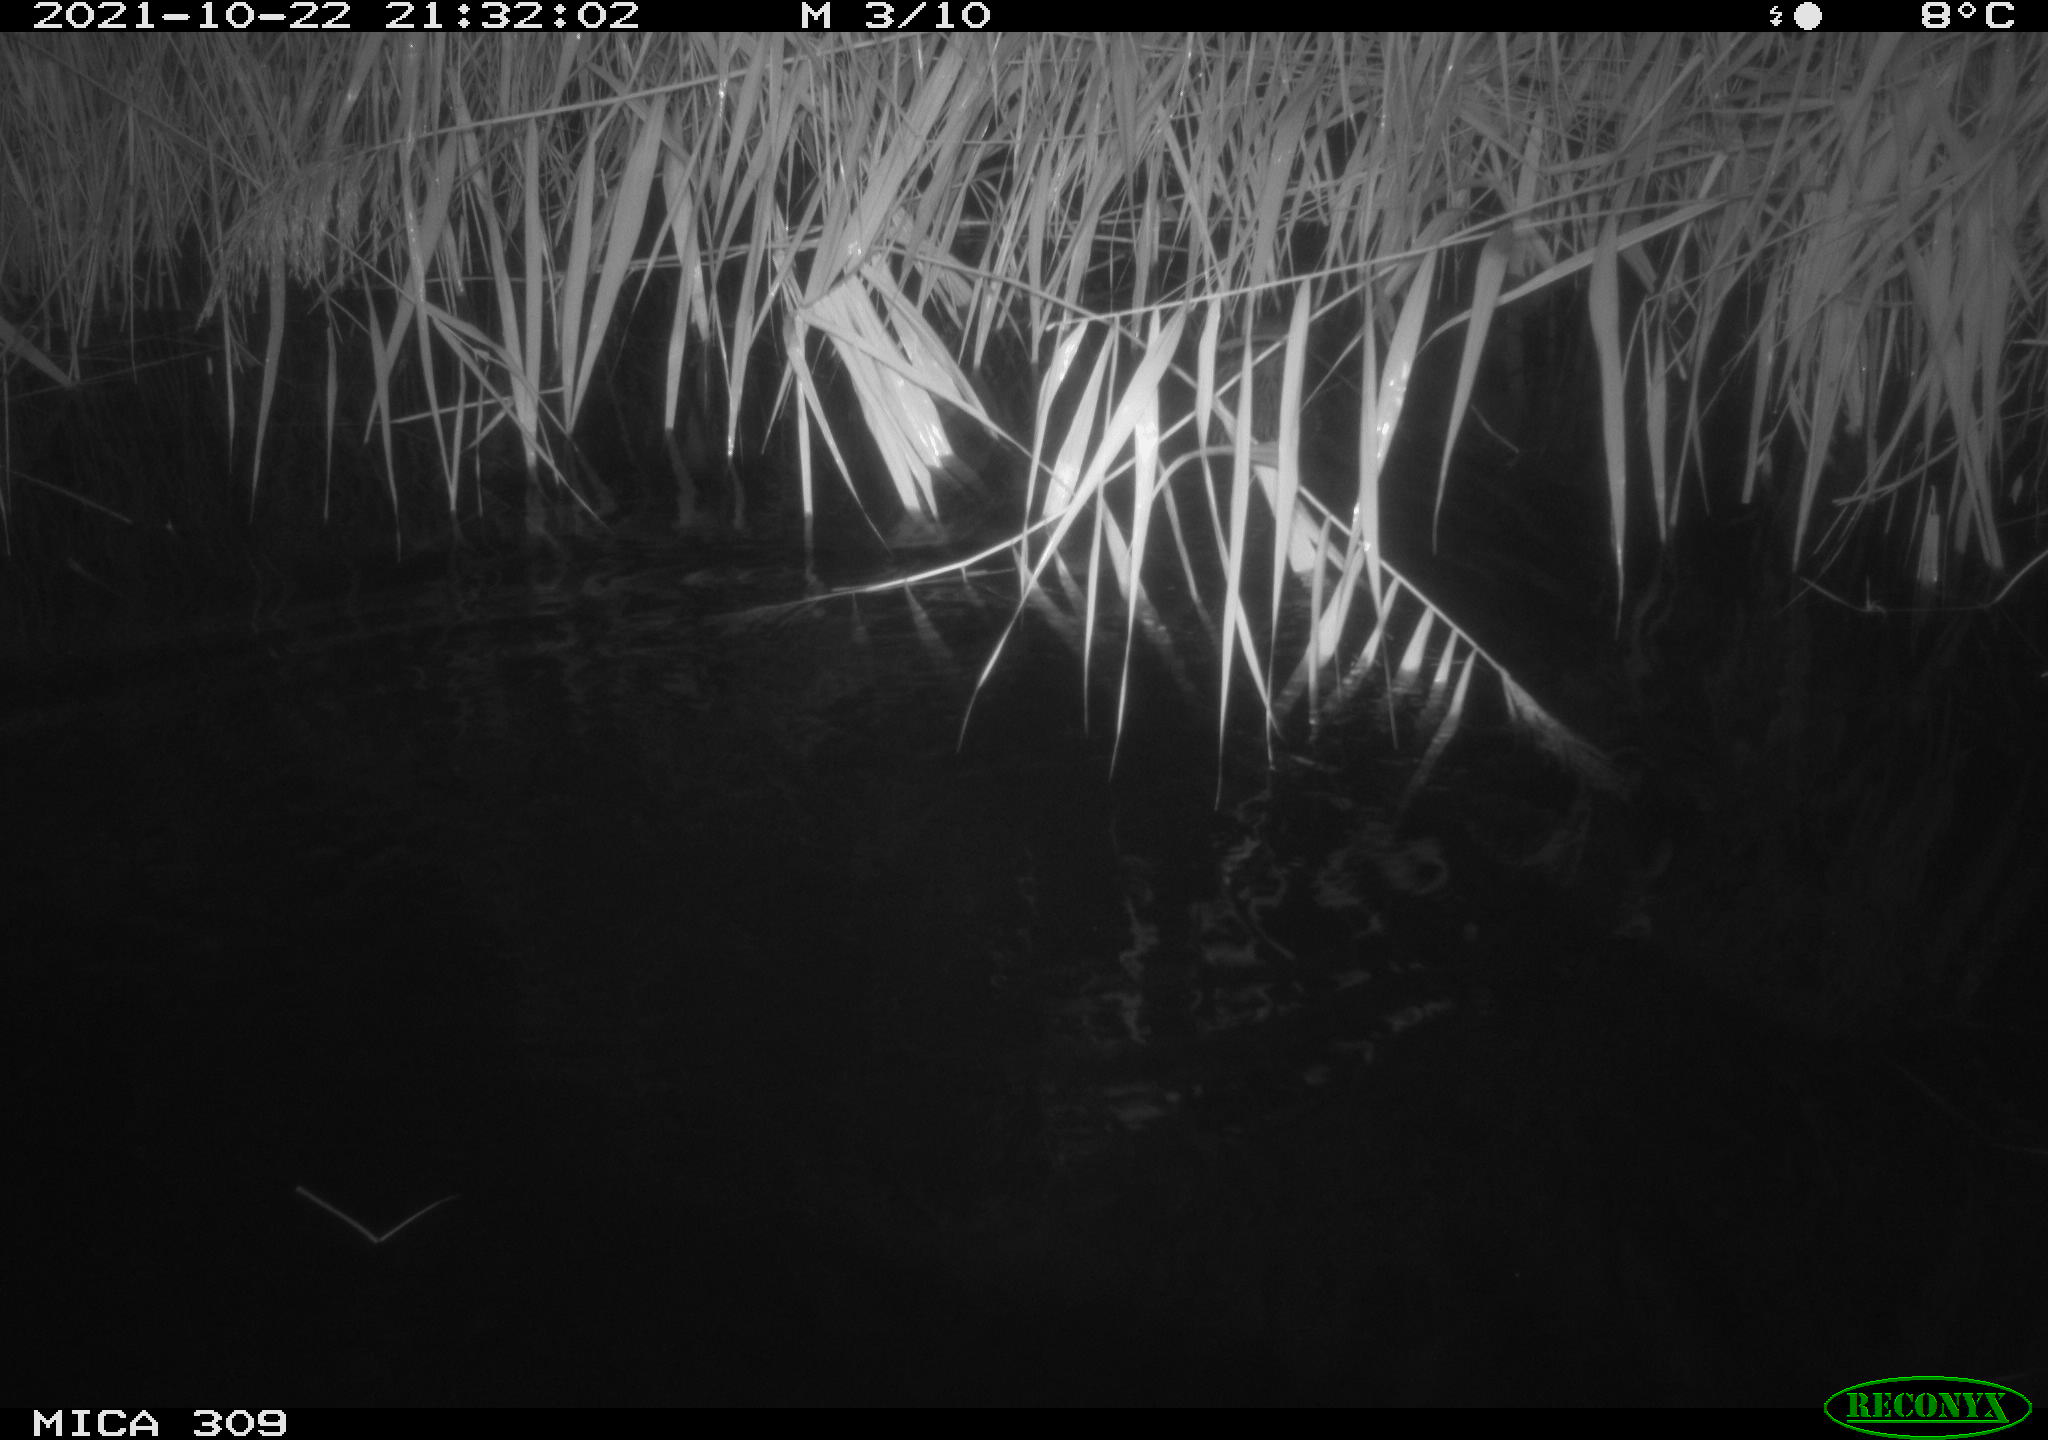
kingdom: Animalia
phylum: Chordata
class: Mammalia
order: Rodentia
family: Cricetidae
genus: Ondatra
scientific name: Ondatra zibethicus
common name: Muskrat
